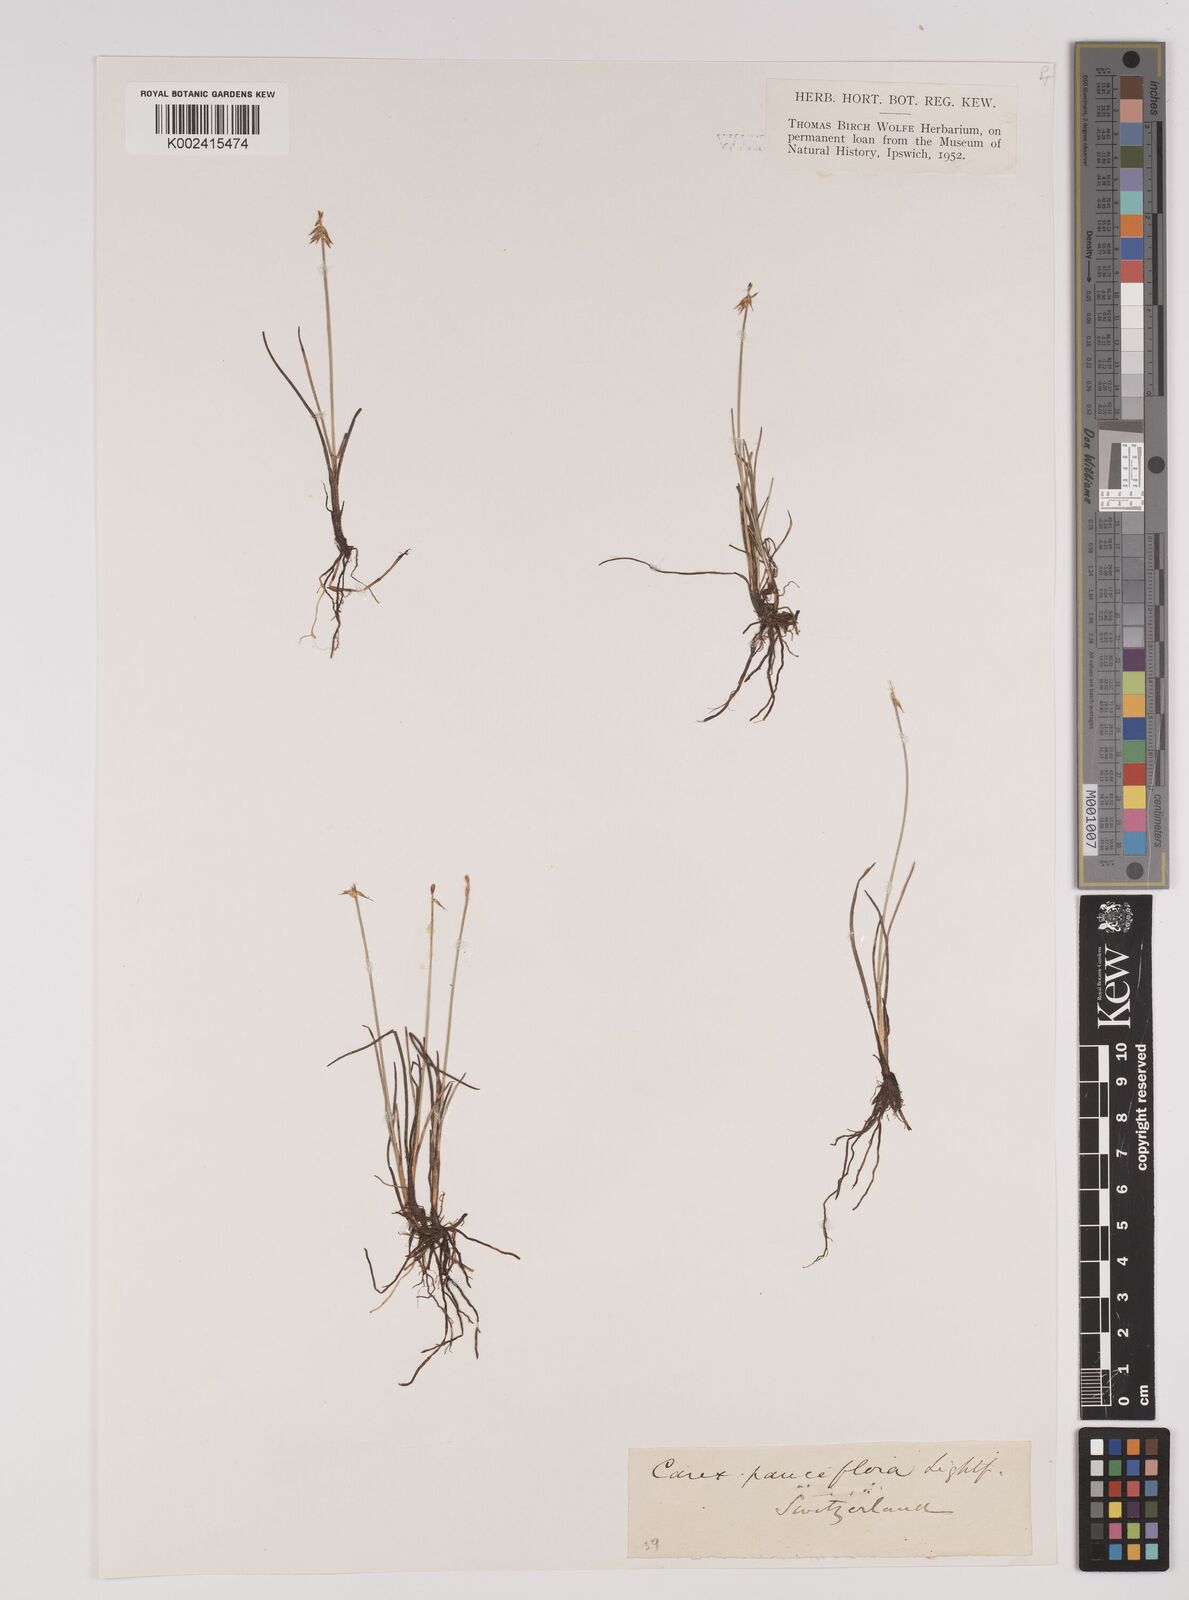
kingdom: Plantae
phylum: Tracheophyta
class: Liliopsida
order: Poales
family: Cyperaceae
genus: Carex
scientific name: Carex pulicaris
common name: Flea sedge
